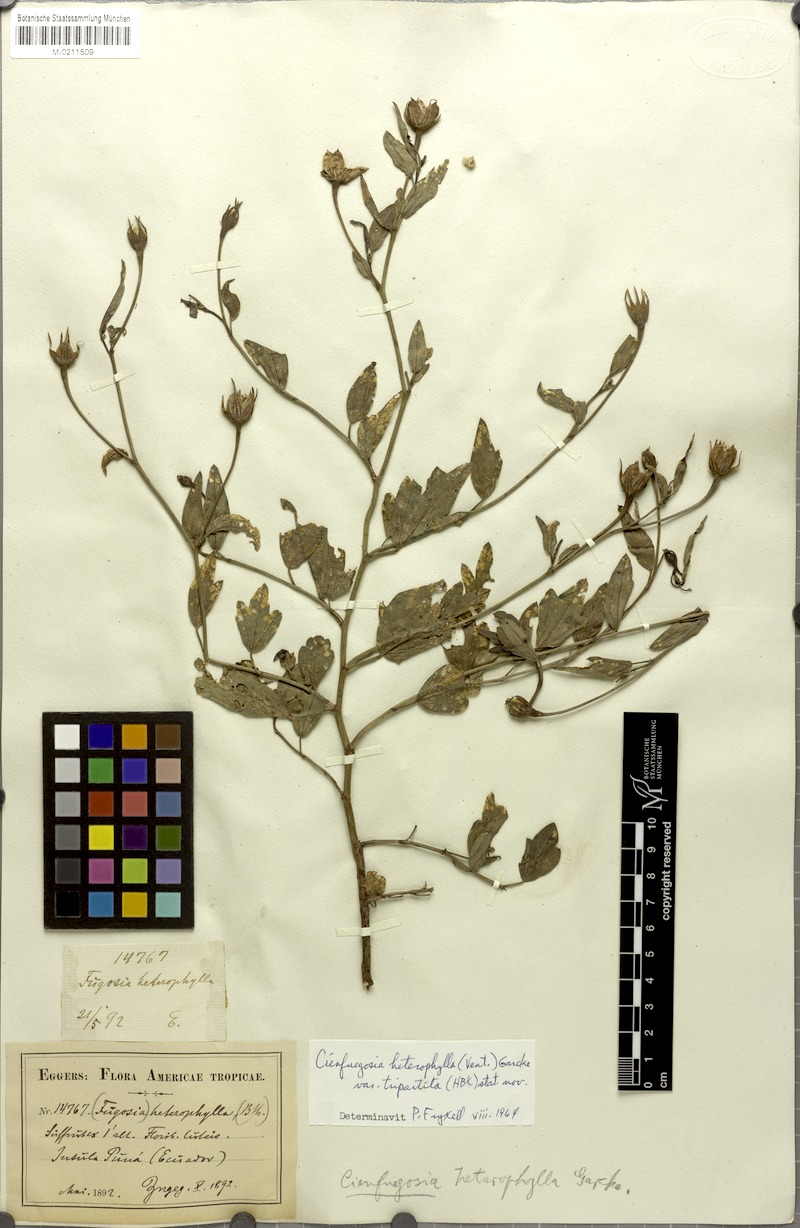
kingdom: Plantae
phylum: Tracheophyta
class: Magnoliopsida
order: Malvales
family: Malvaceae
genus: Cienfuegosia
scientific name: Cienfuegosia tripartita
